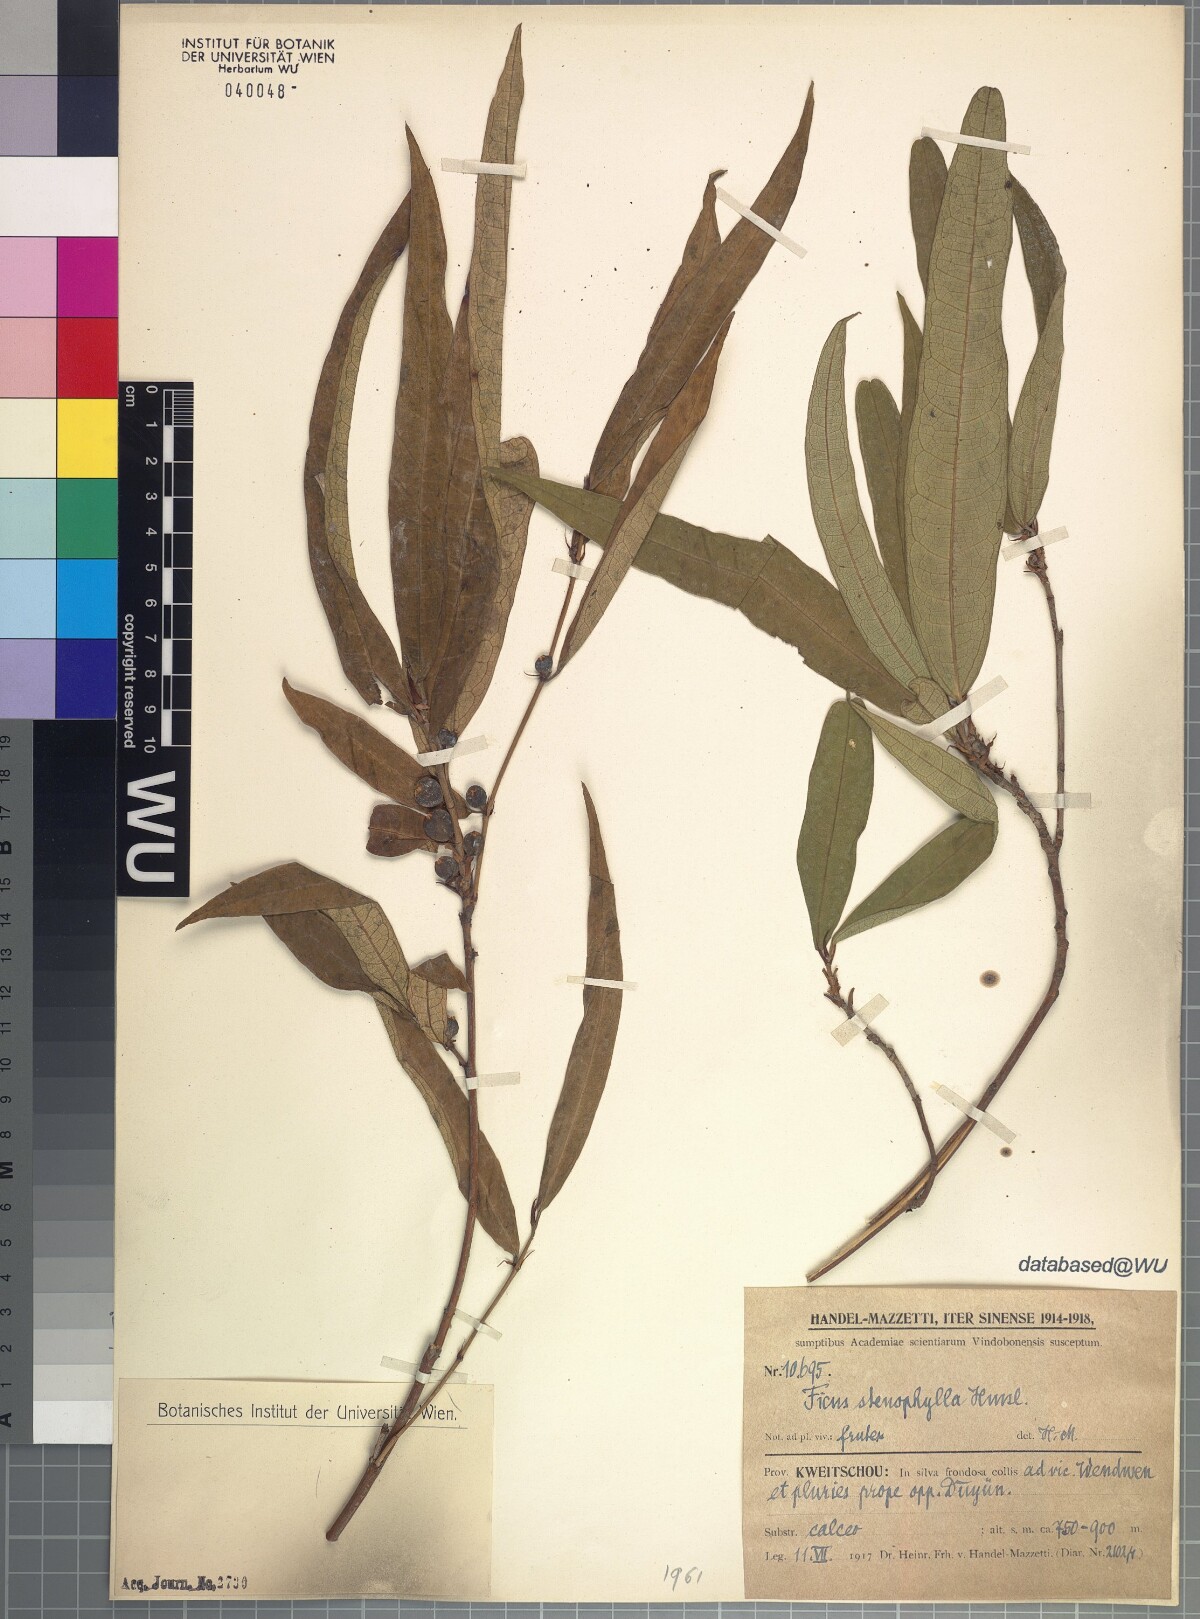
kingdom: Plantae
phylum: Tracheophyta
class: Magnoliopsida
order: Rosales
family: Moraceae
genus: Ficus
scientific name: Ficus macropodocarpa
